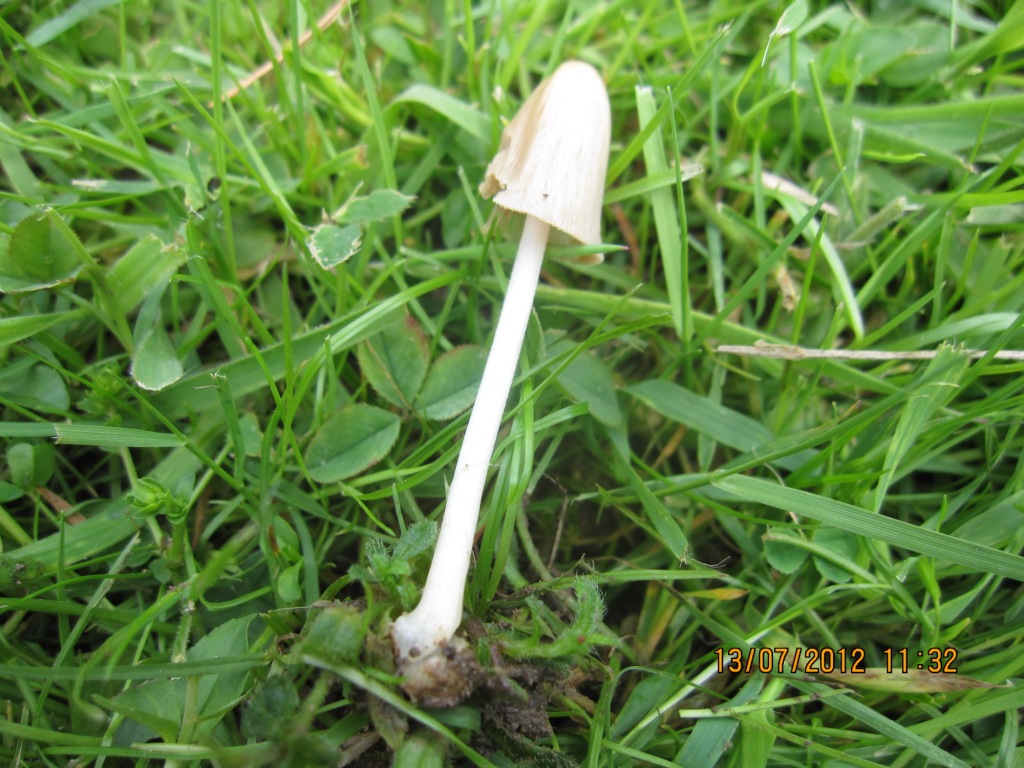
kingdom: Fungi
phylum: Basidiomycota
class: Agaricomycetes
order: Agaricales
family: Bolbitiaceae
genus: Conocybe
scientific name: Conocybe apala
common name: mælkehvid keglehat
